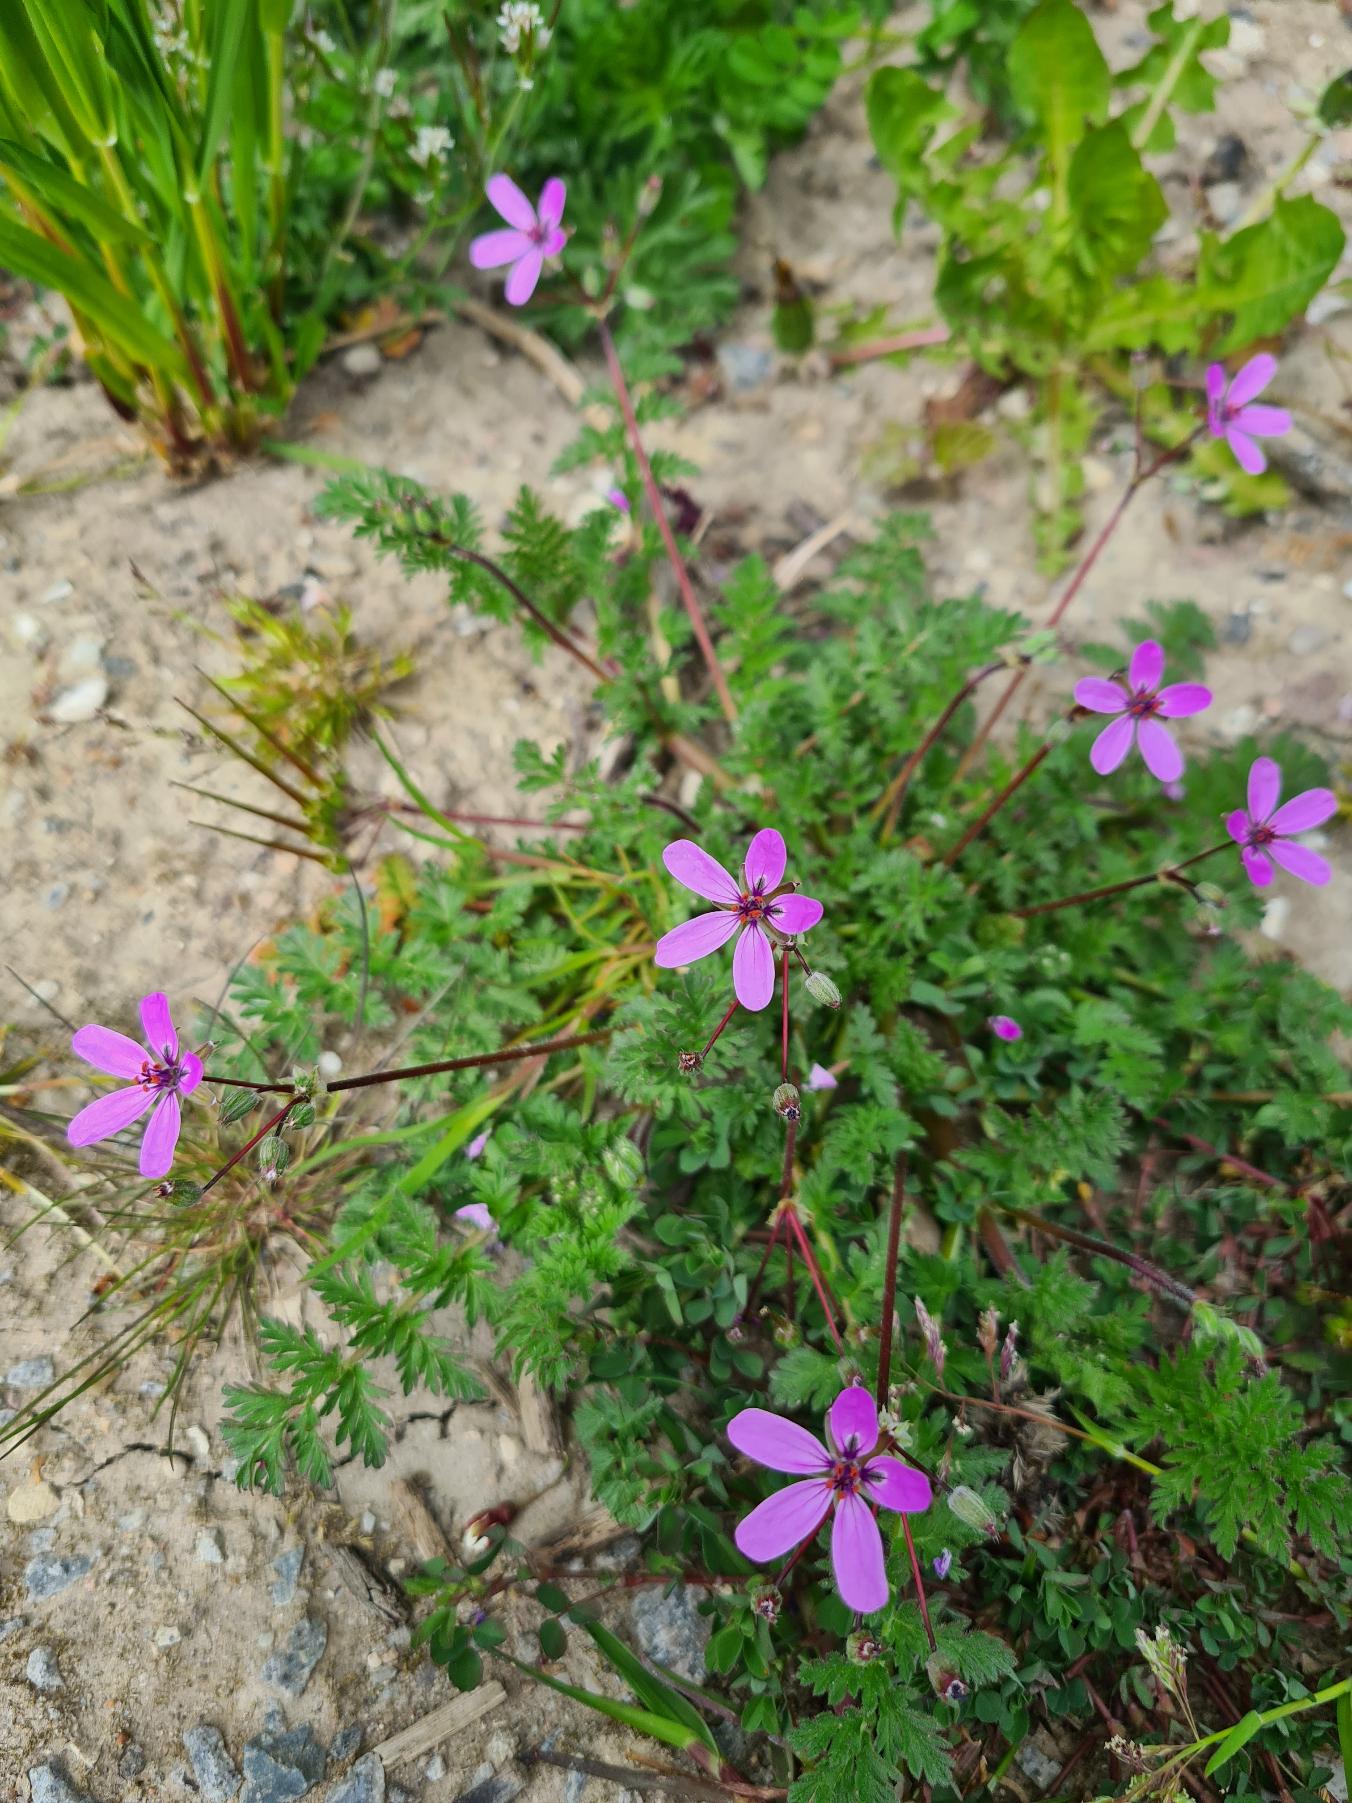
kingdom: Plantae
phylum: Tracheophyta
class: Magnoliopsida
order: Geraniales
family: Geraniaceae
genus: Erodium
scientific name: Erodium cicutarium
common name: Hejrenæb
